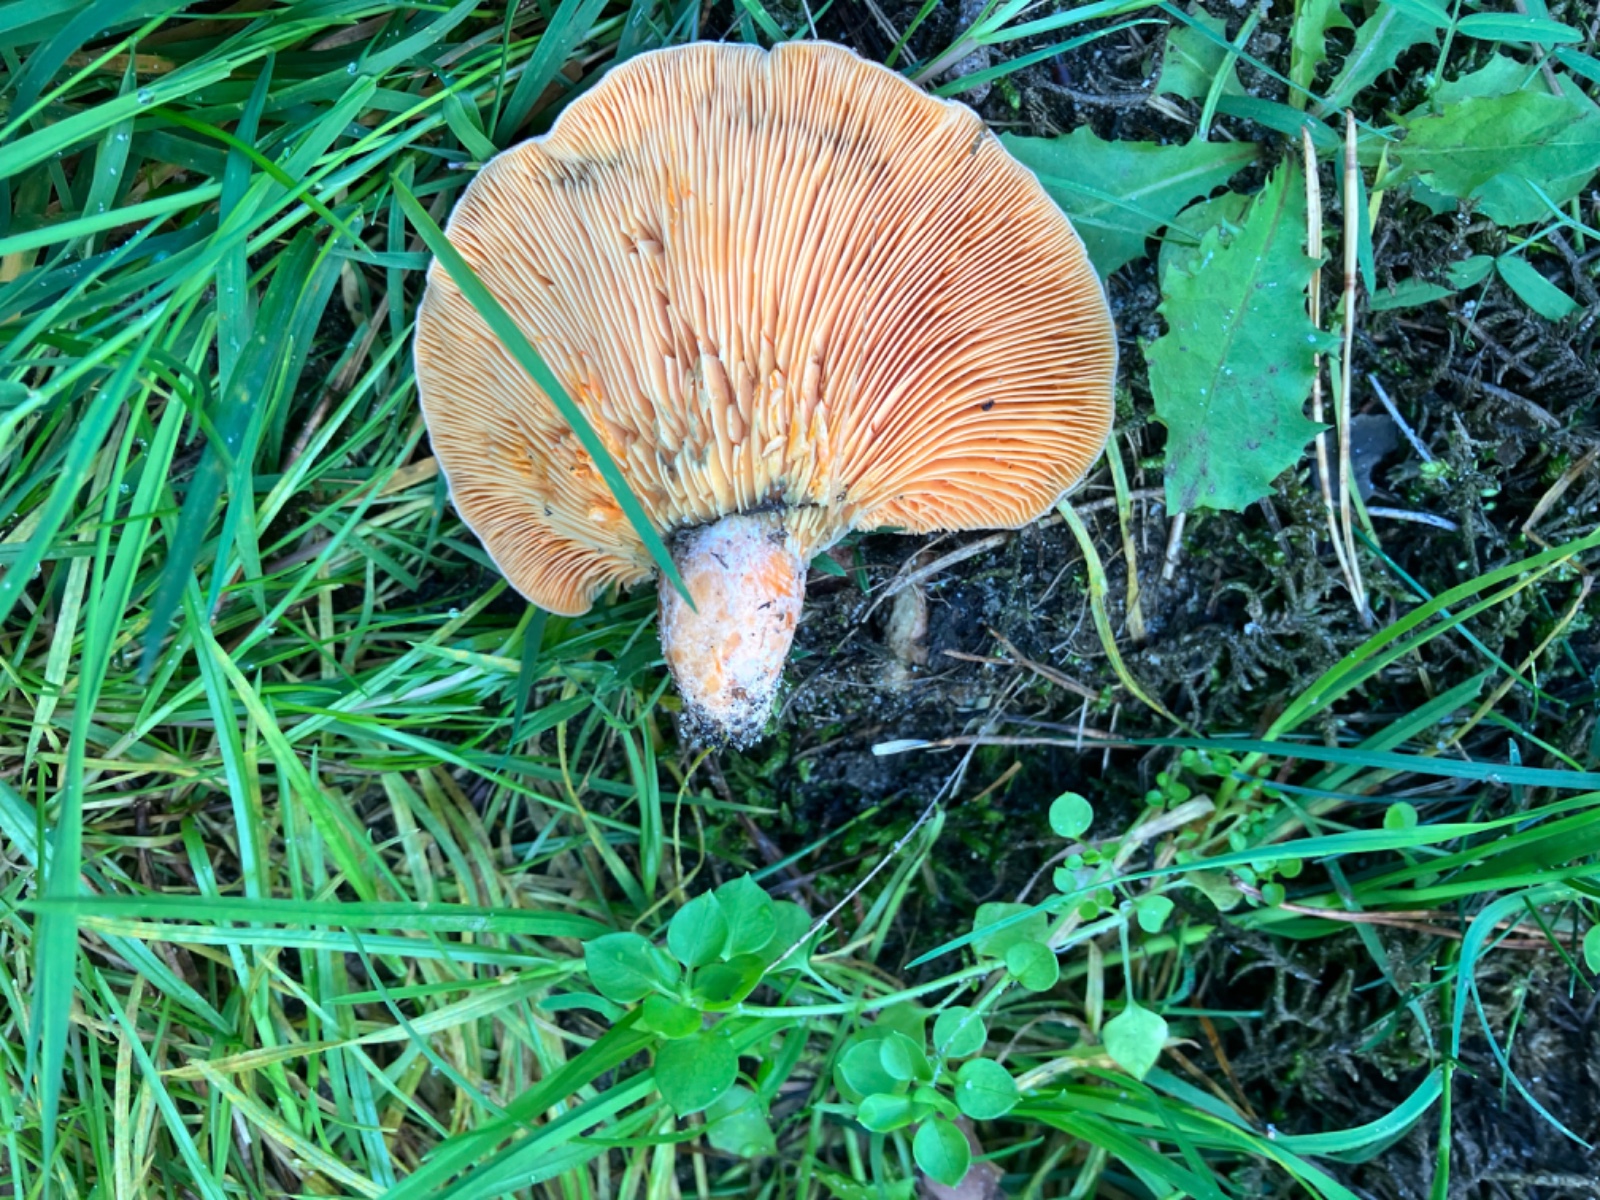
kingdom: Fungi
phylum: Basidiomycota
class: Agaricomycetes
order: Russulales
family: Russulaceae
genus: Lactarius
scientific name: Lactarius deliciosus
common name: velsmagende mælkehat
